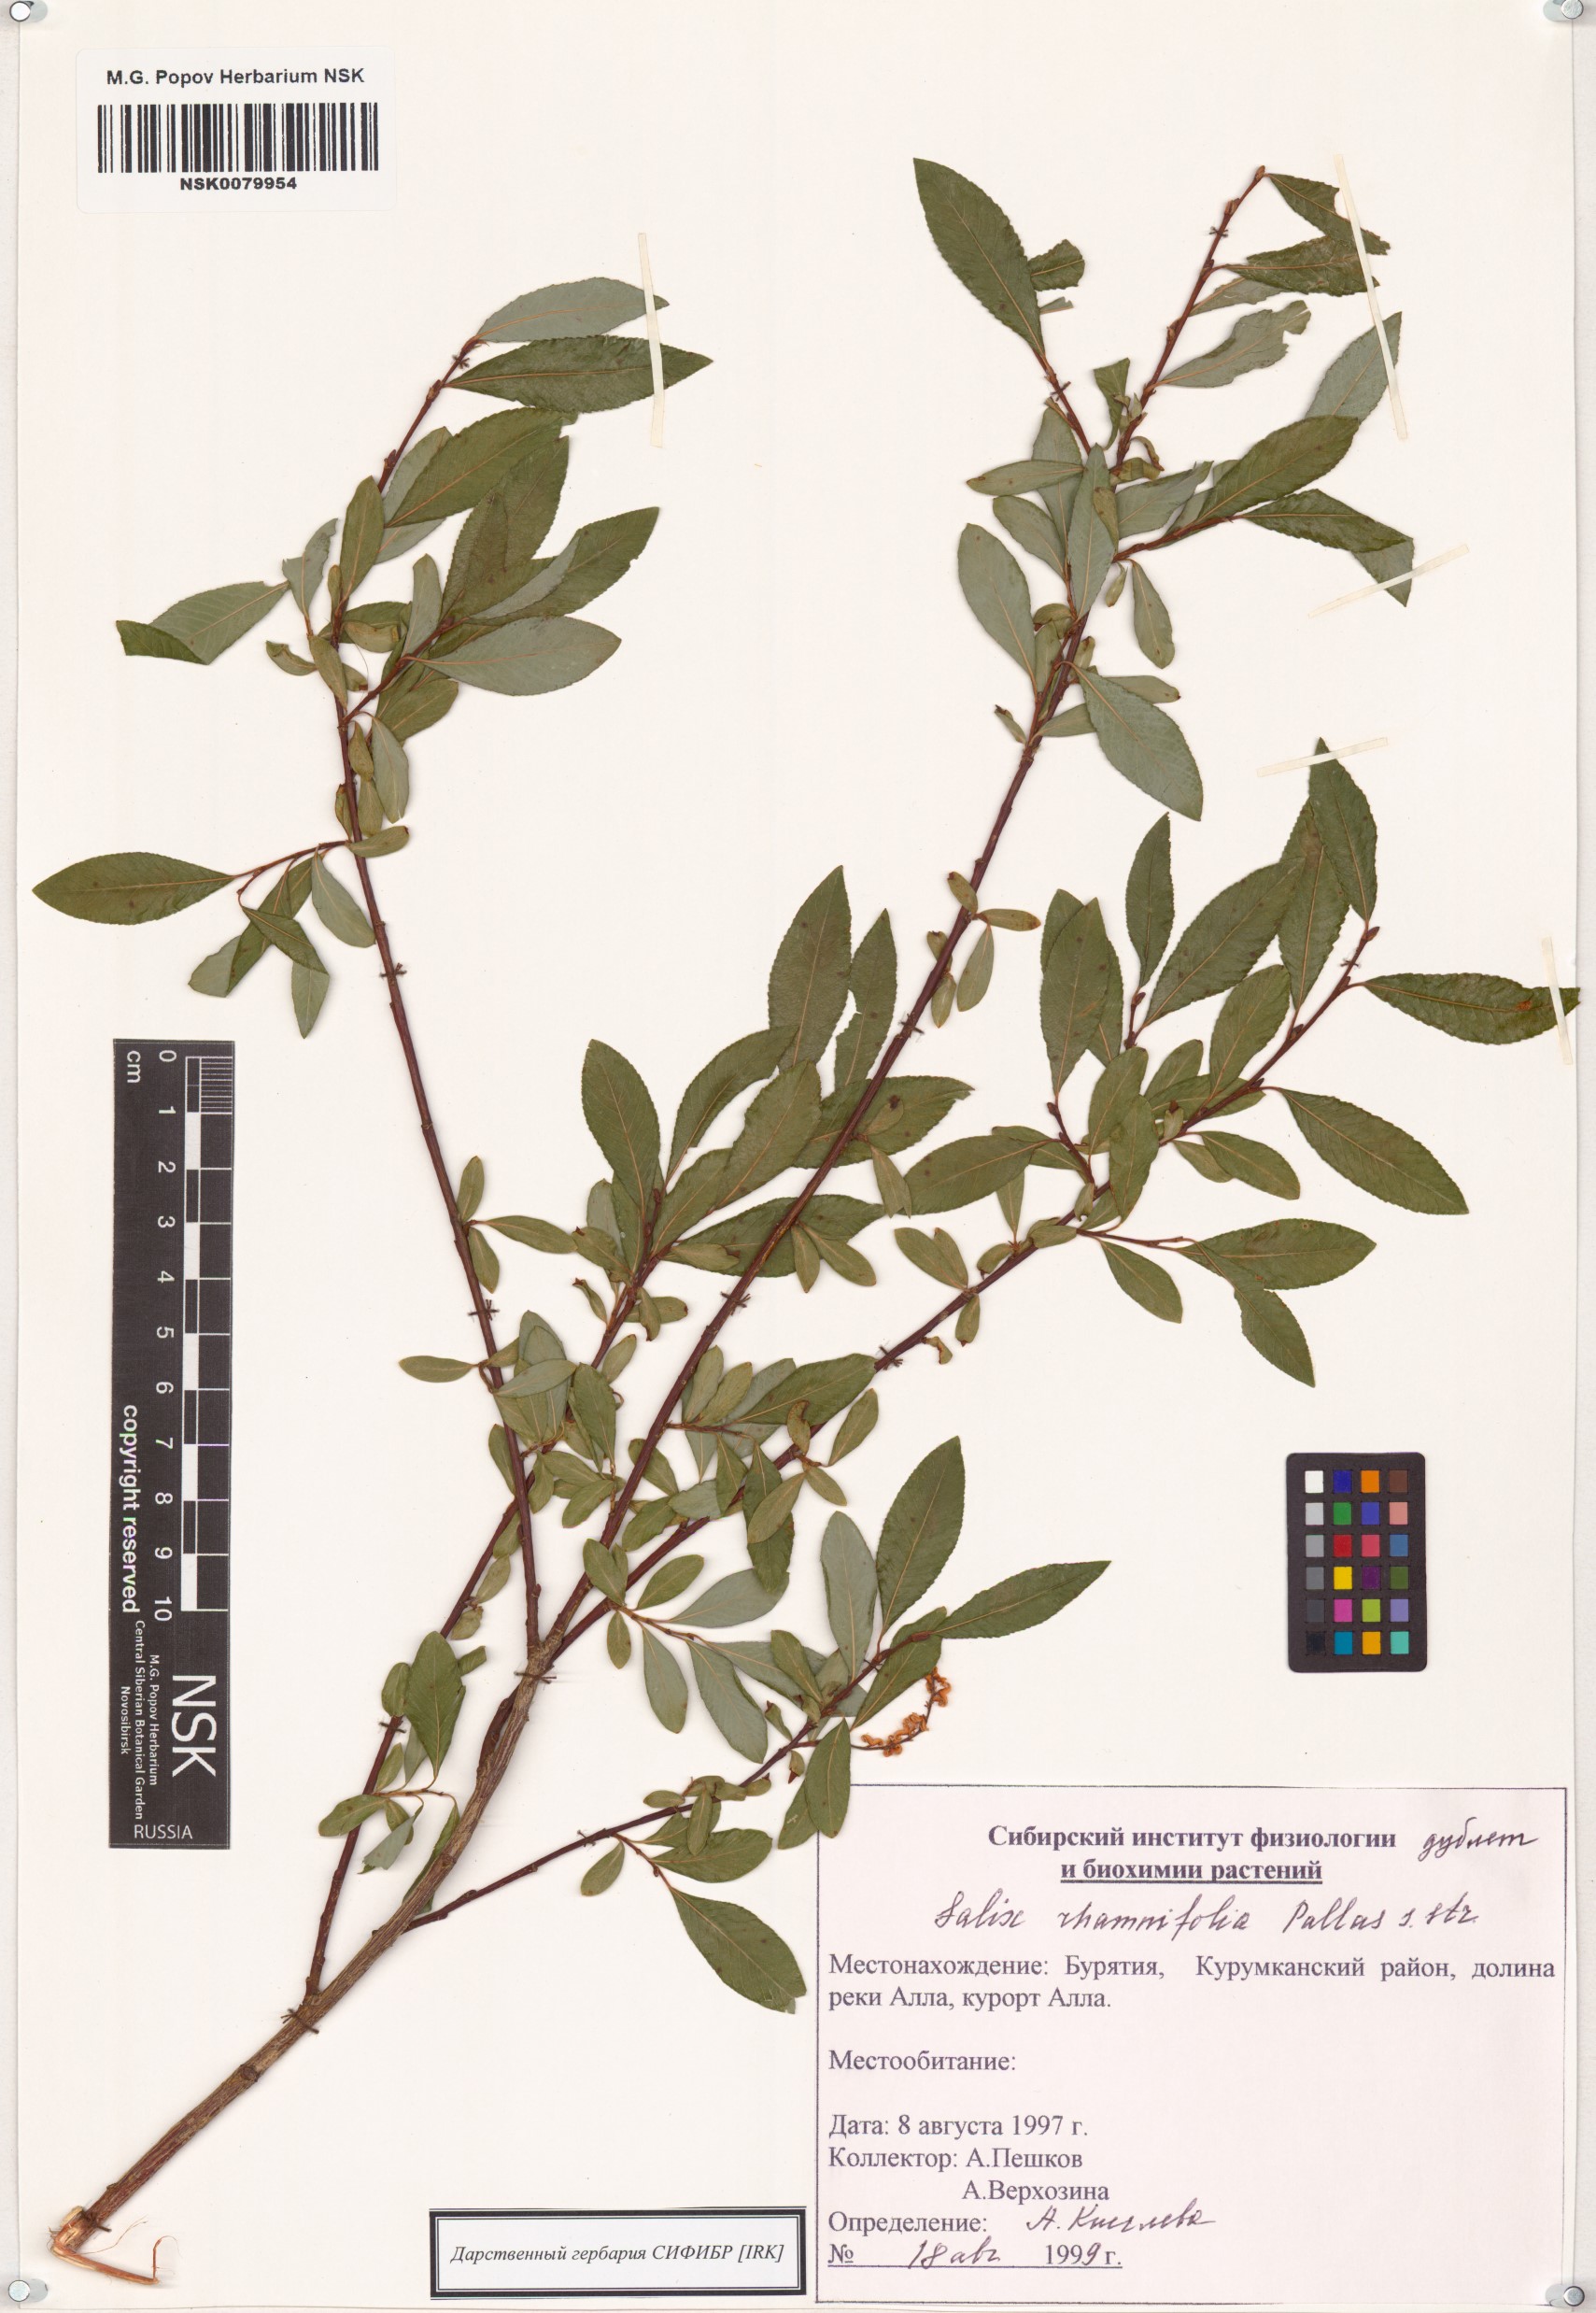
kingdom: Plantae
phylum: Tracheophyta
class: Magnoliopsida
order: Malpighiales
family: Salicaceae
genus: Salix
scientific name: Salix rhamnifolia
